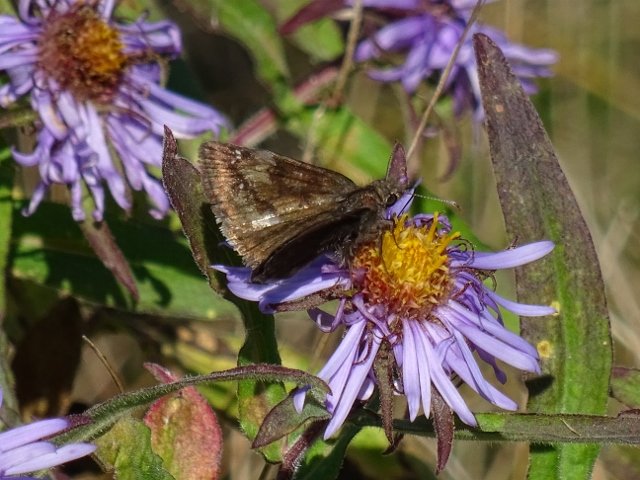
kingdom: Animalia
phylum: Arthropoda
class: Insecta
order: Lepidoptera
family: Hesperiidae
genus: Gesta
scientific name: Gesta
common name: Wild Indigo Duskywing
